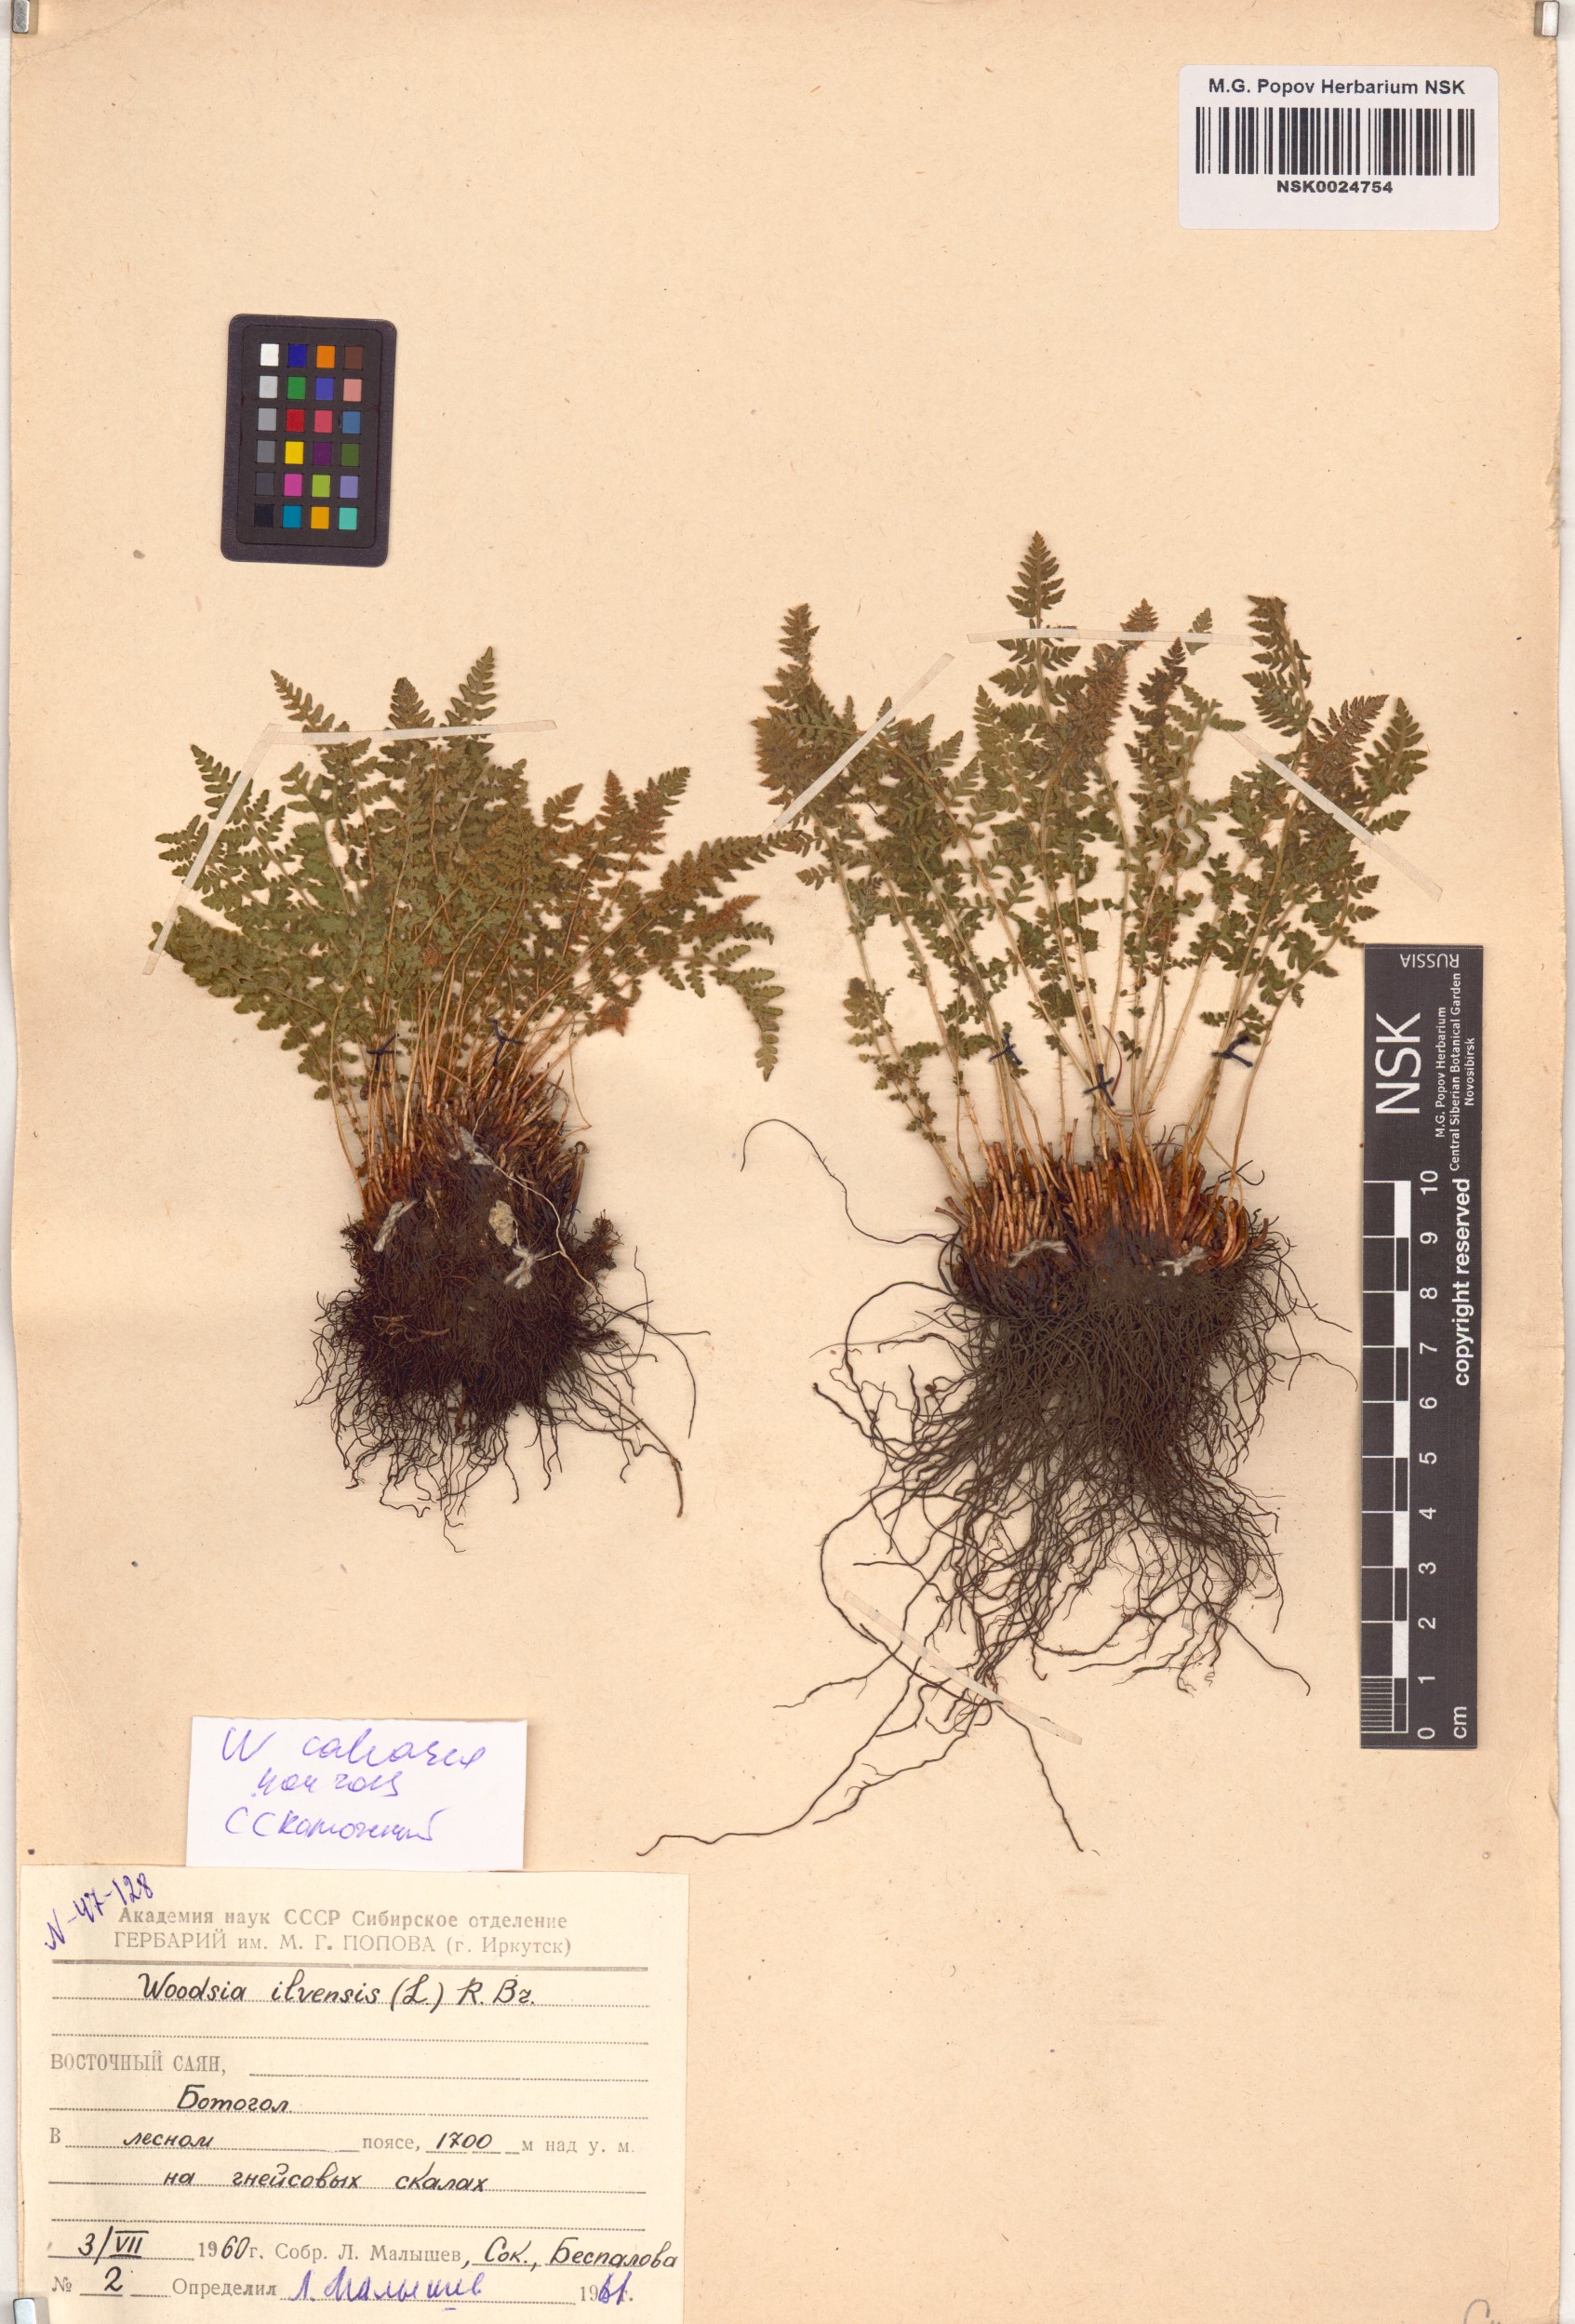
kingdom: Plantae
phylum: Tracheophyta
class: Polypodiopsida
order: Polypodiales
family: Woodsiaceae
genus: Woodsia
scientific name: Woodsia calcarea
